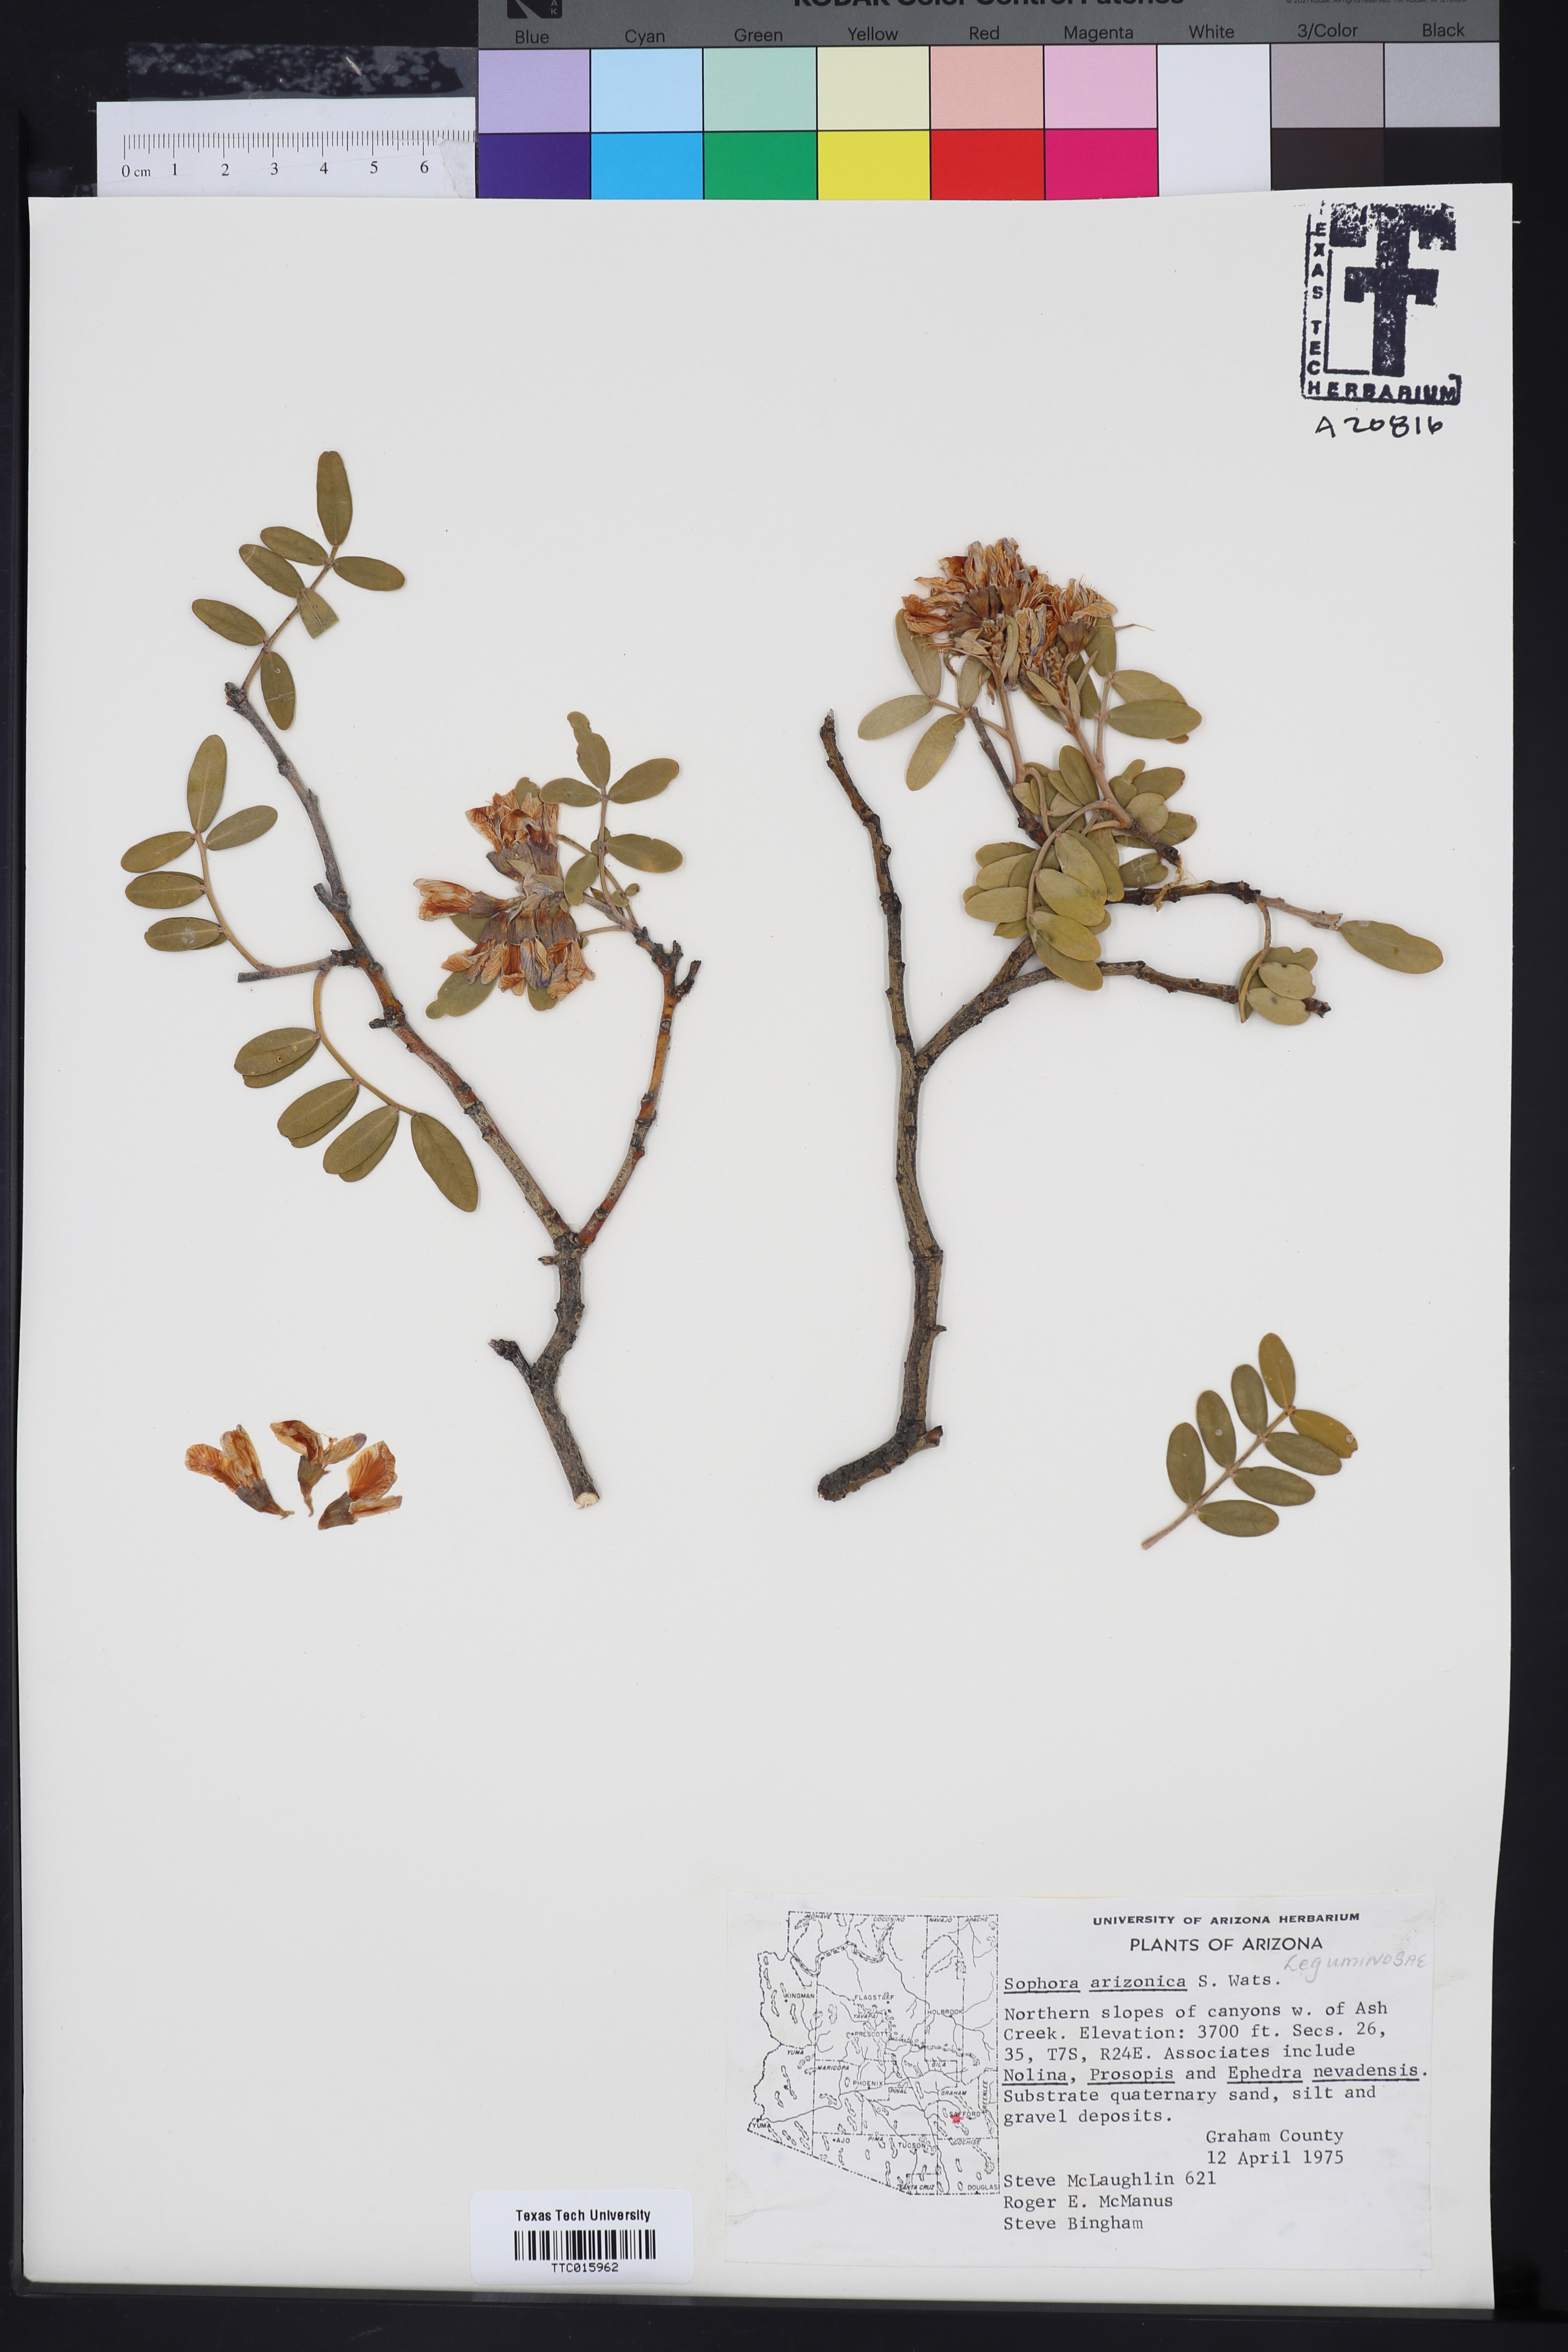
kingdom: Plantae
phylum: Tracheophyta
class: Magnoliopsida
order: Fabales
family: Fabaceae
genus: Dermatophyllum
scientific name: Dermatophyllum arizonicum
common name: Arizona necklace
